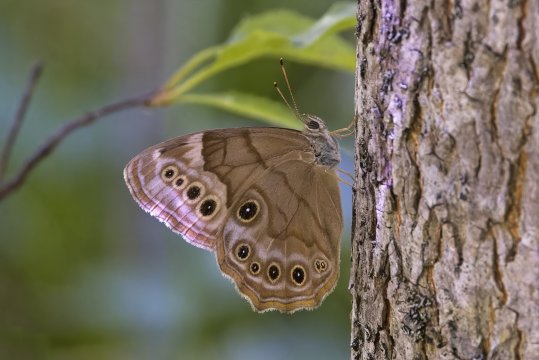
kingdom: Animalia
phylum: Arthropoda
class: Insecta
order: Lepidoptera
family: Nymphalidae
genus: Lethe
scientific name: Lethe anthedon
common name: Northern Pearly-Eye
